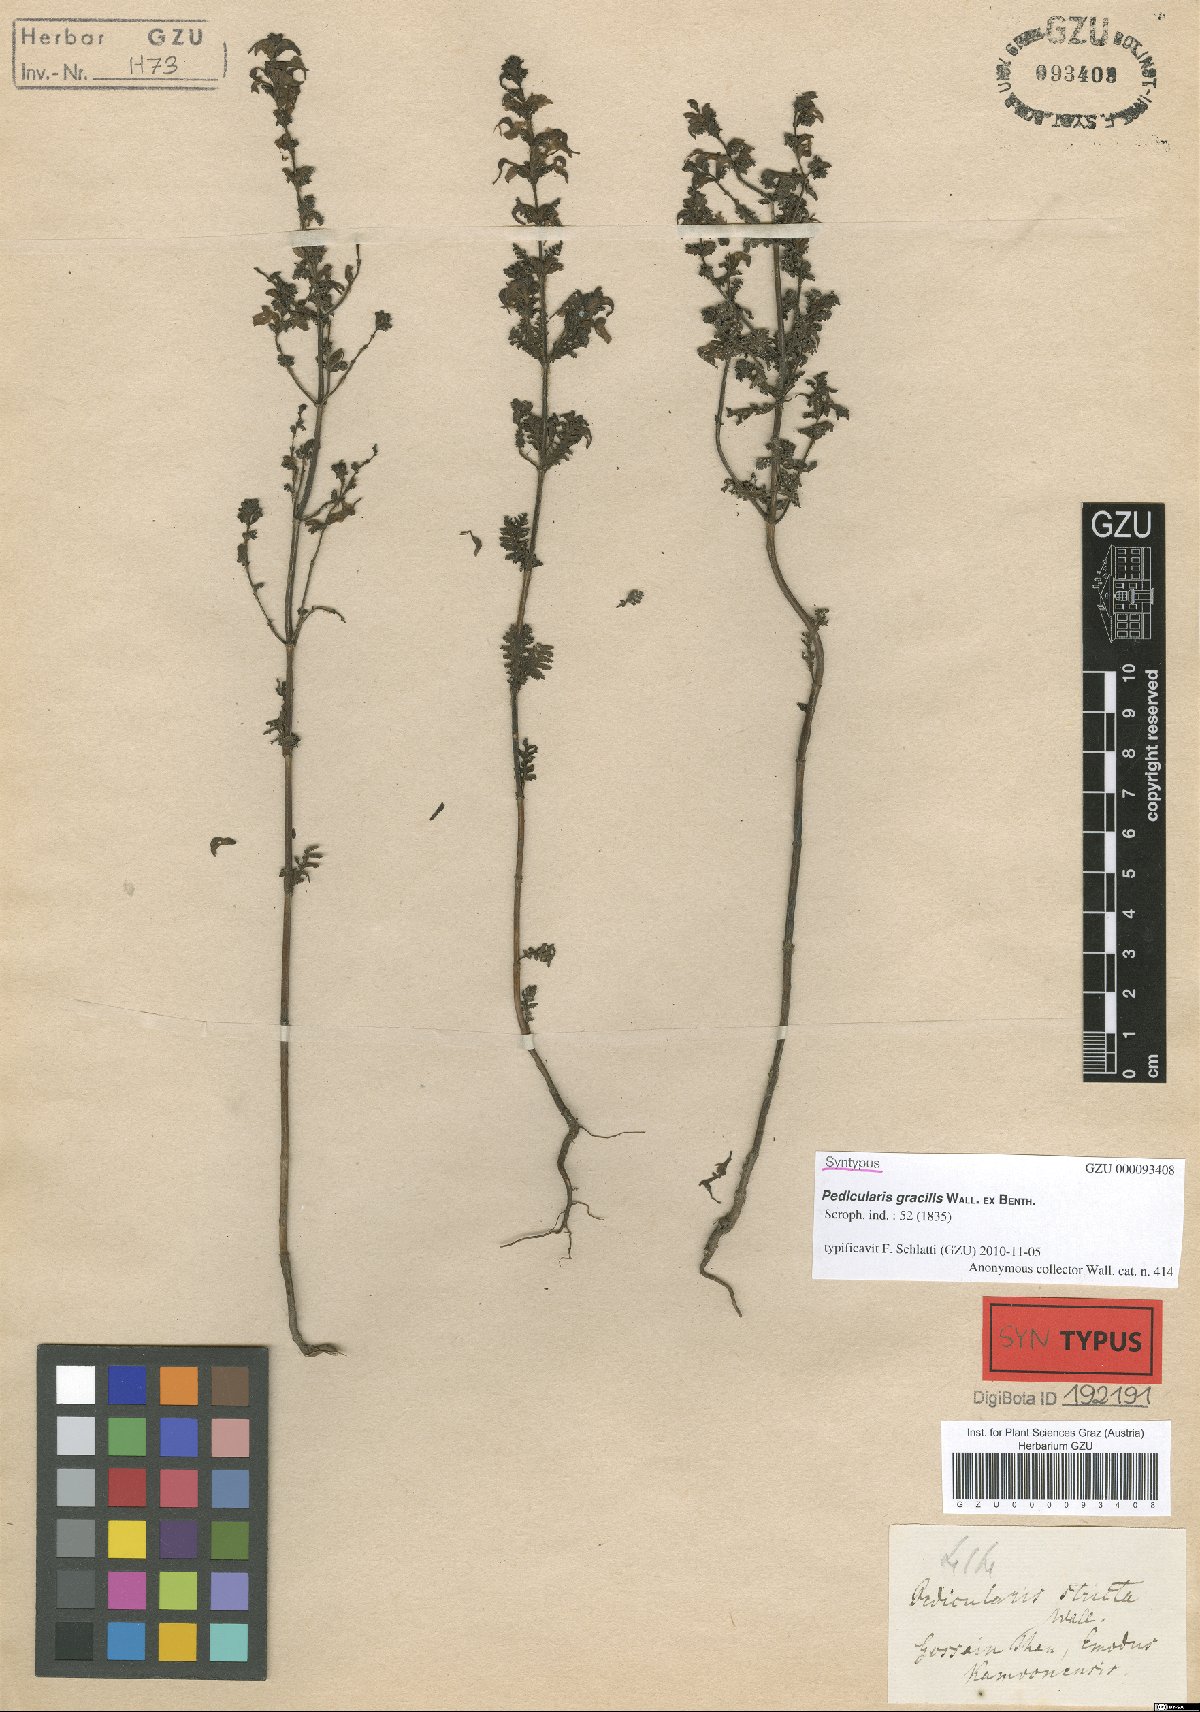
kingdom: Plantae
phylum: Tracheophyta
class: Magnoliopsida
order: Lamiales
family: Orobanchaceae
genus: Pedicularis
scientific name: Pedicularis gracilis
